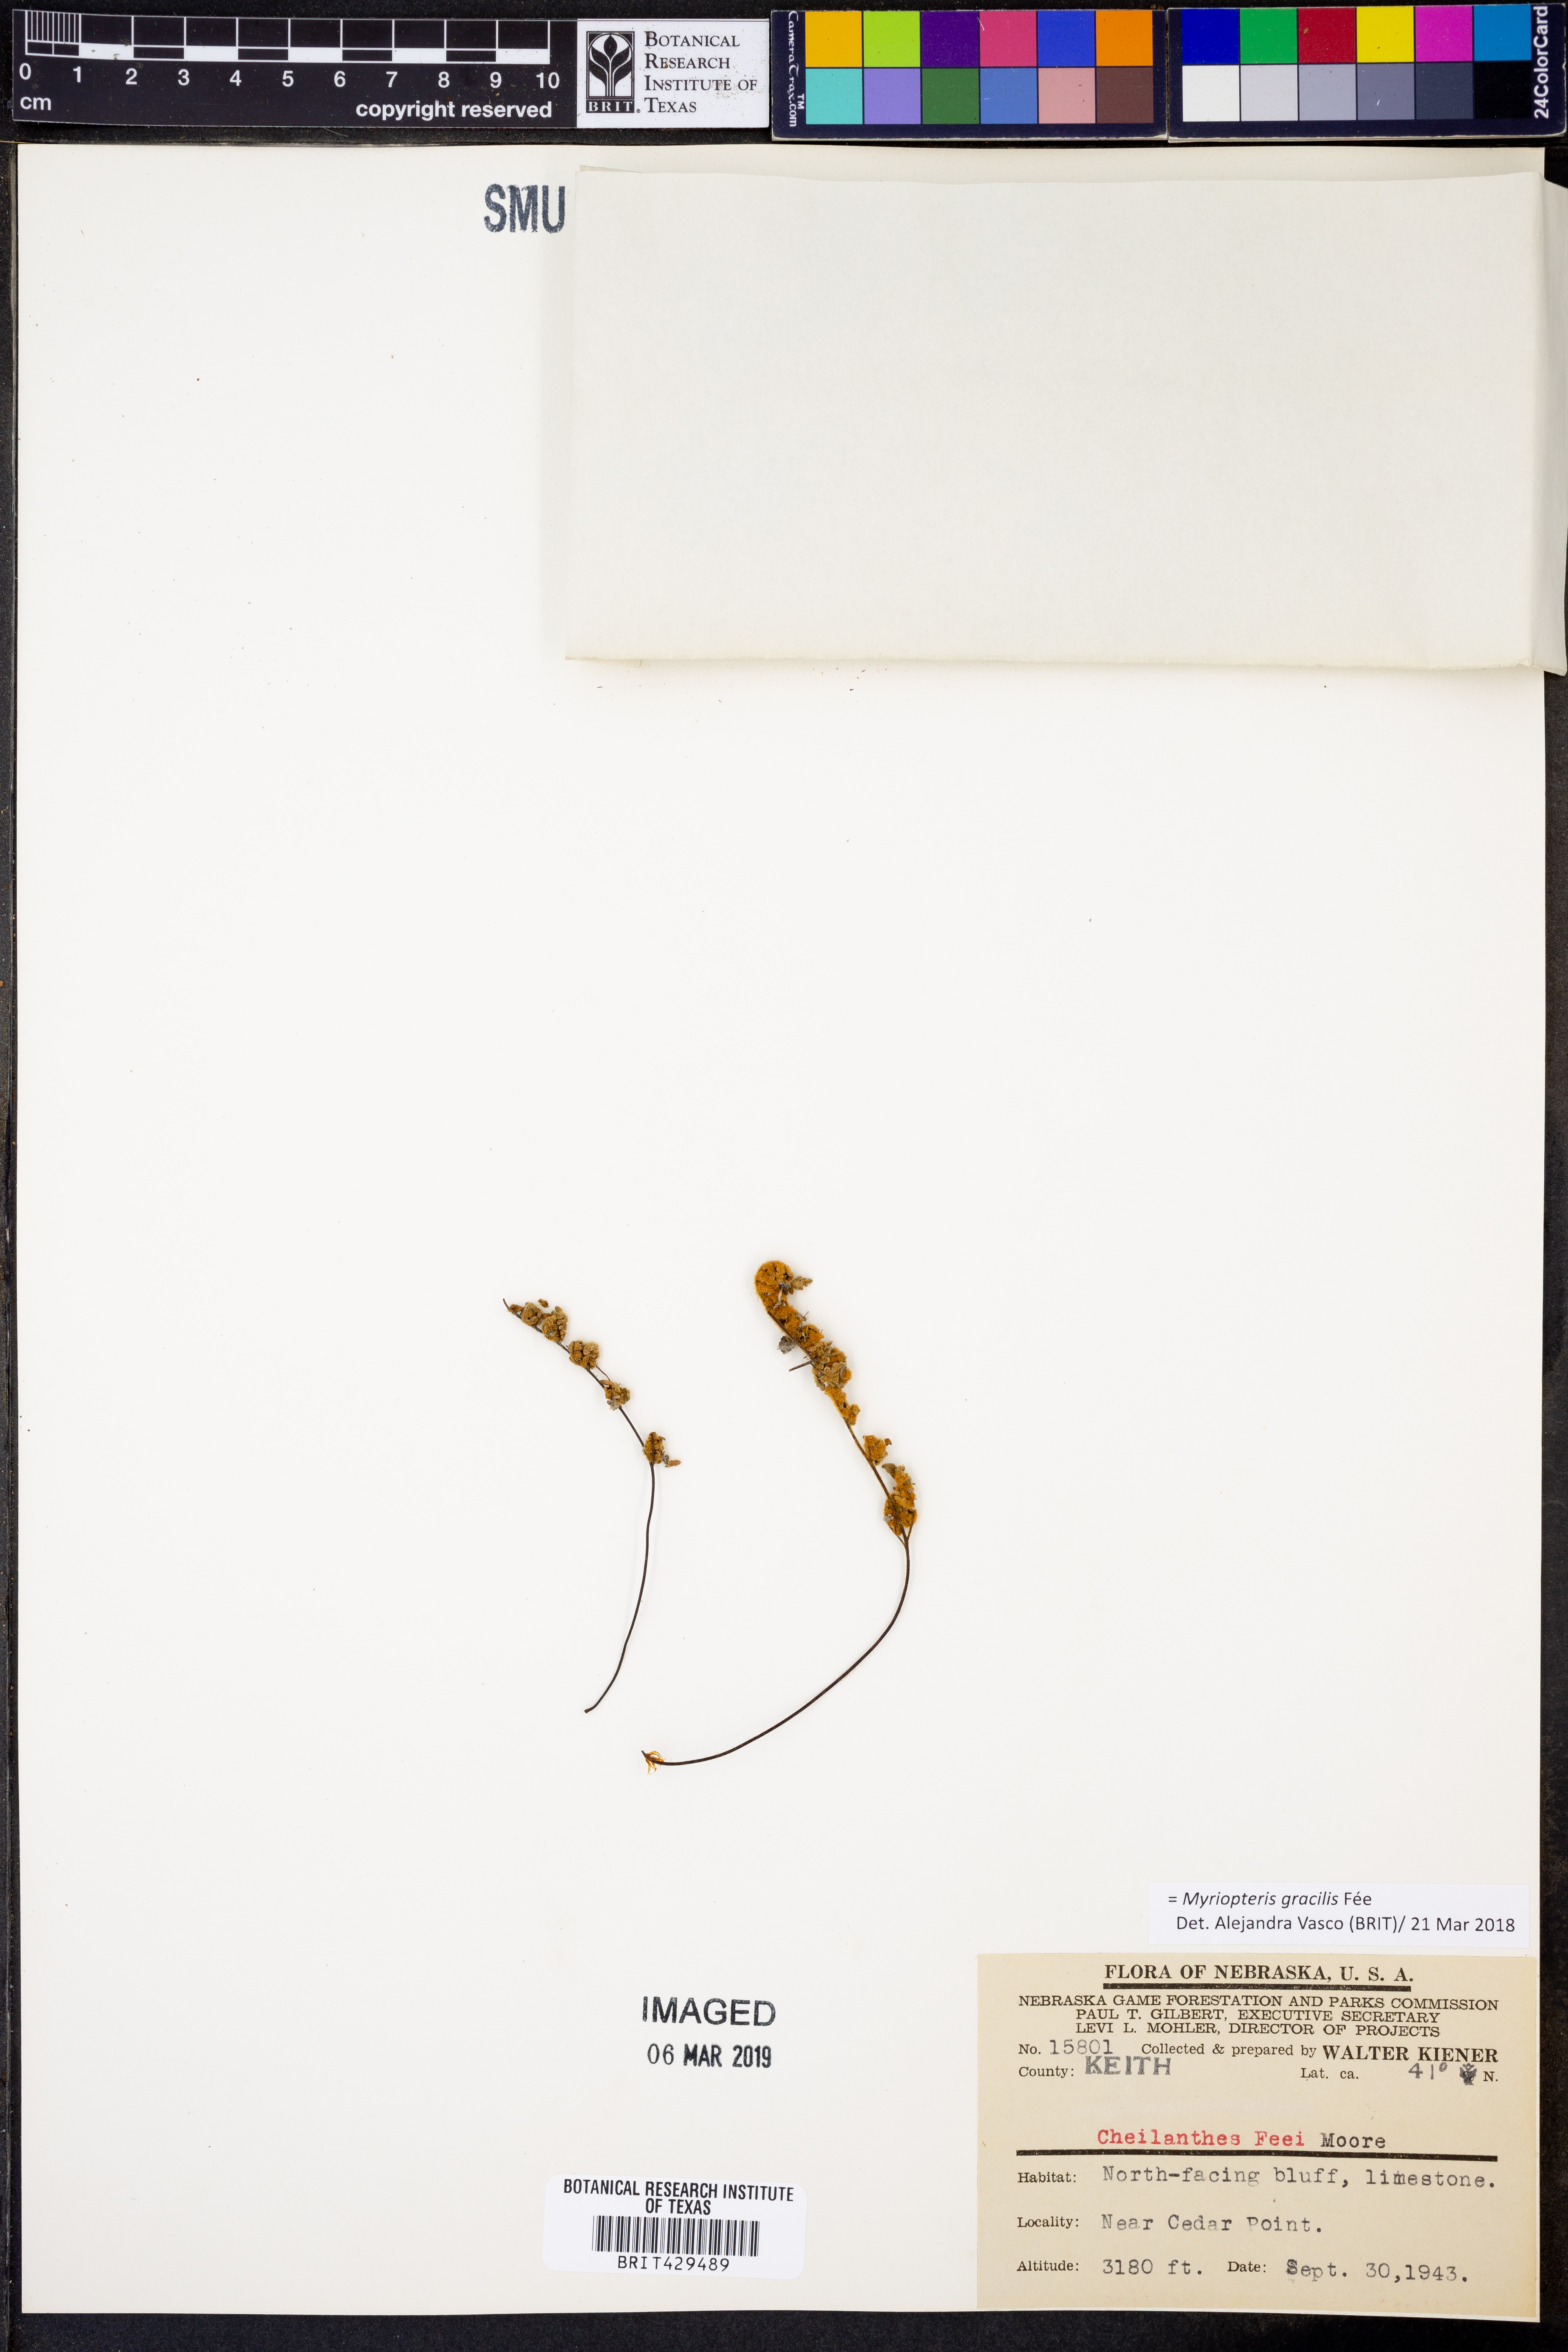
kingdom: Plantae
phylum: Tracheophyta
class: Polypodiopsida
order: Polypodiales
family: Pteridaceae
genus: Myriopteris
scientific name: Myriopteris gracilis
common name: Fee's lip fern
